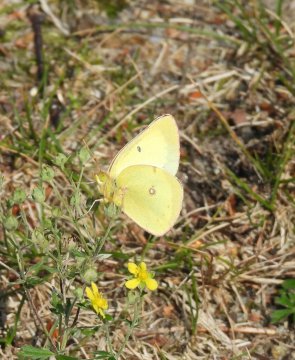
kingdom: Animalia
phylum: Arthropoda
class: Insecta
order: Lepidoptera
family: Pieridae
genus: Colias
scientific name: Colias philodice
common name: Clouded Sulphur
